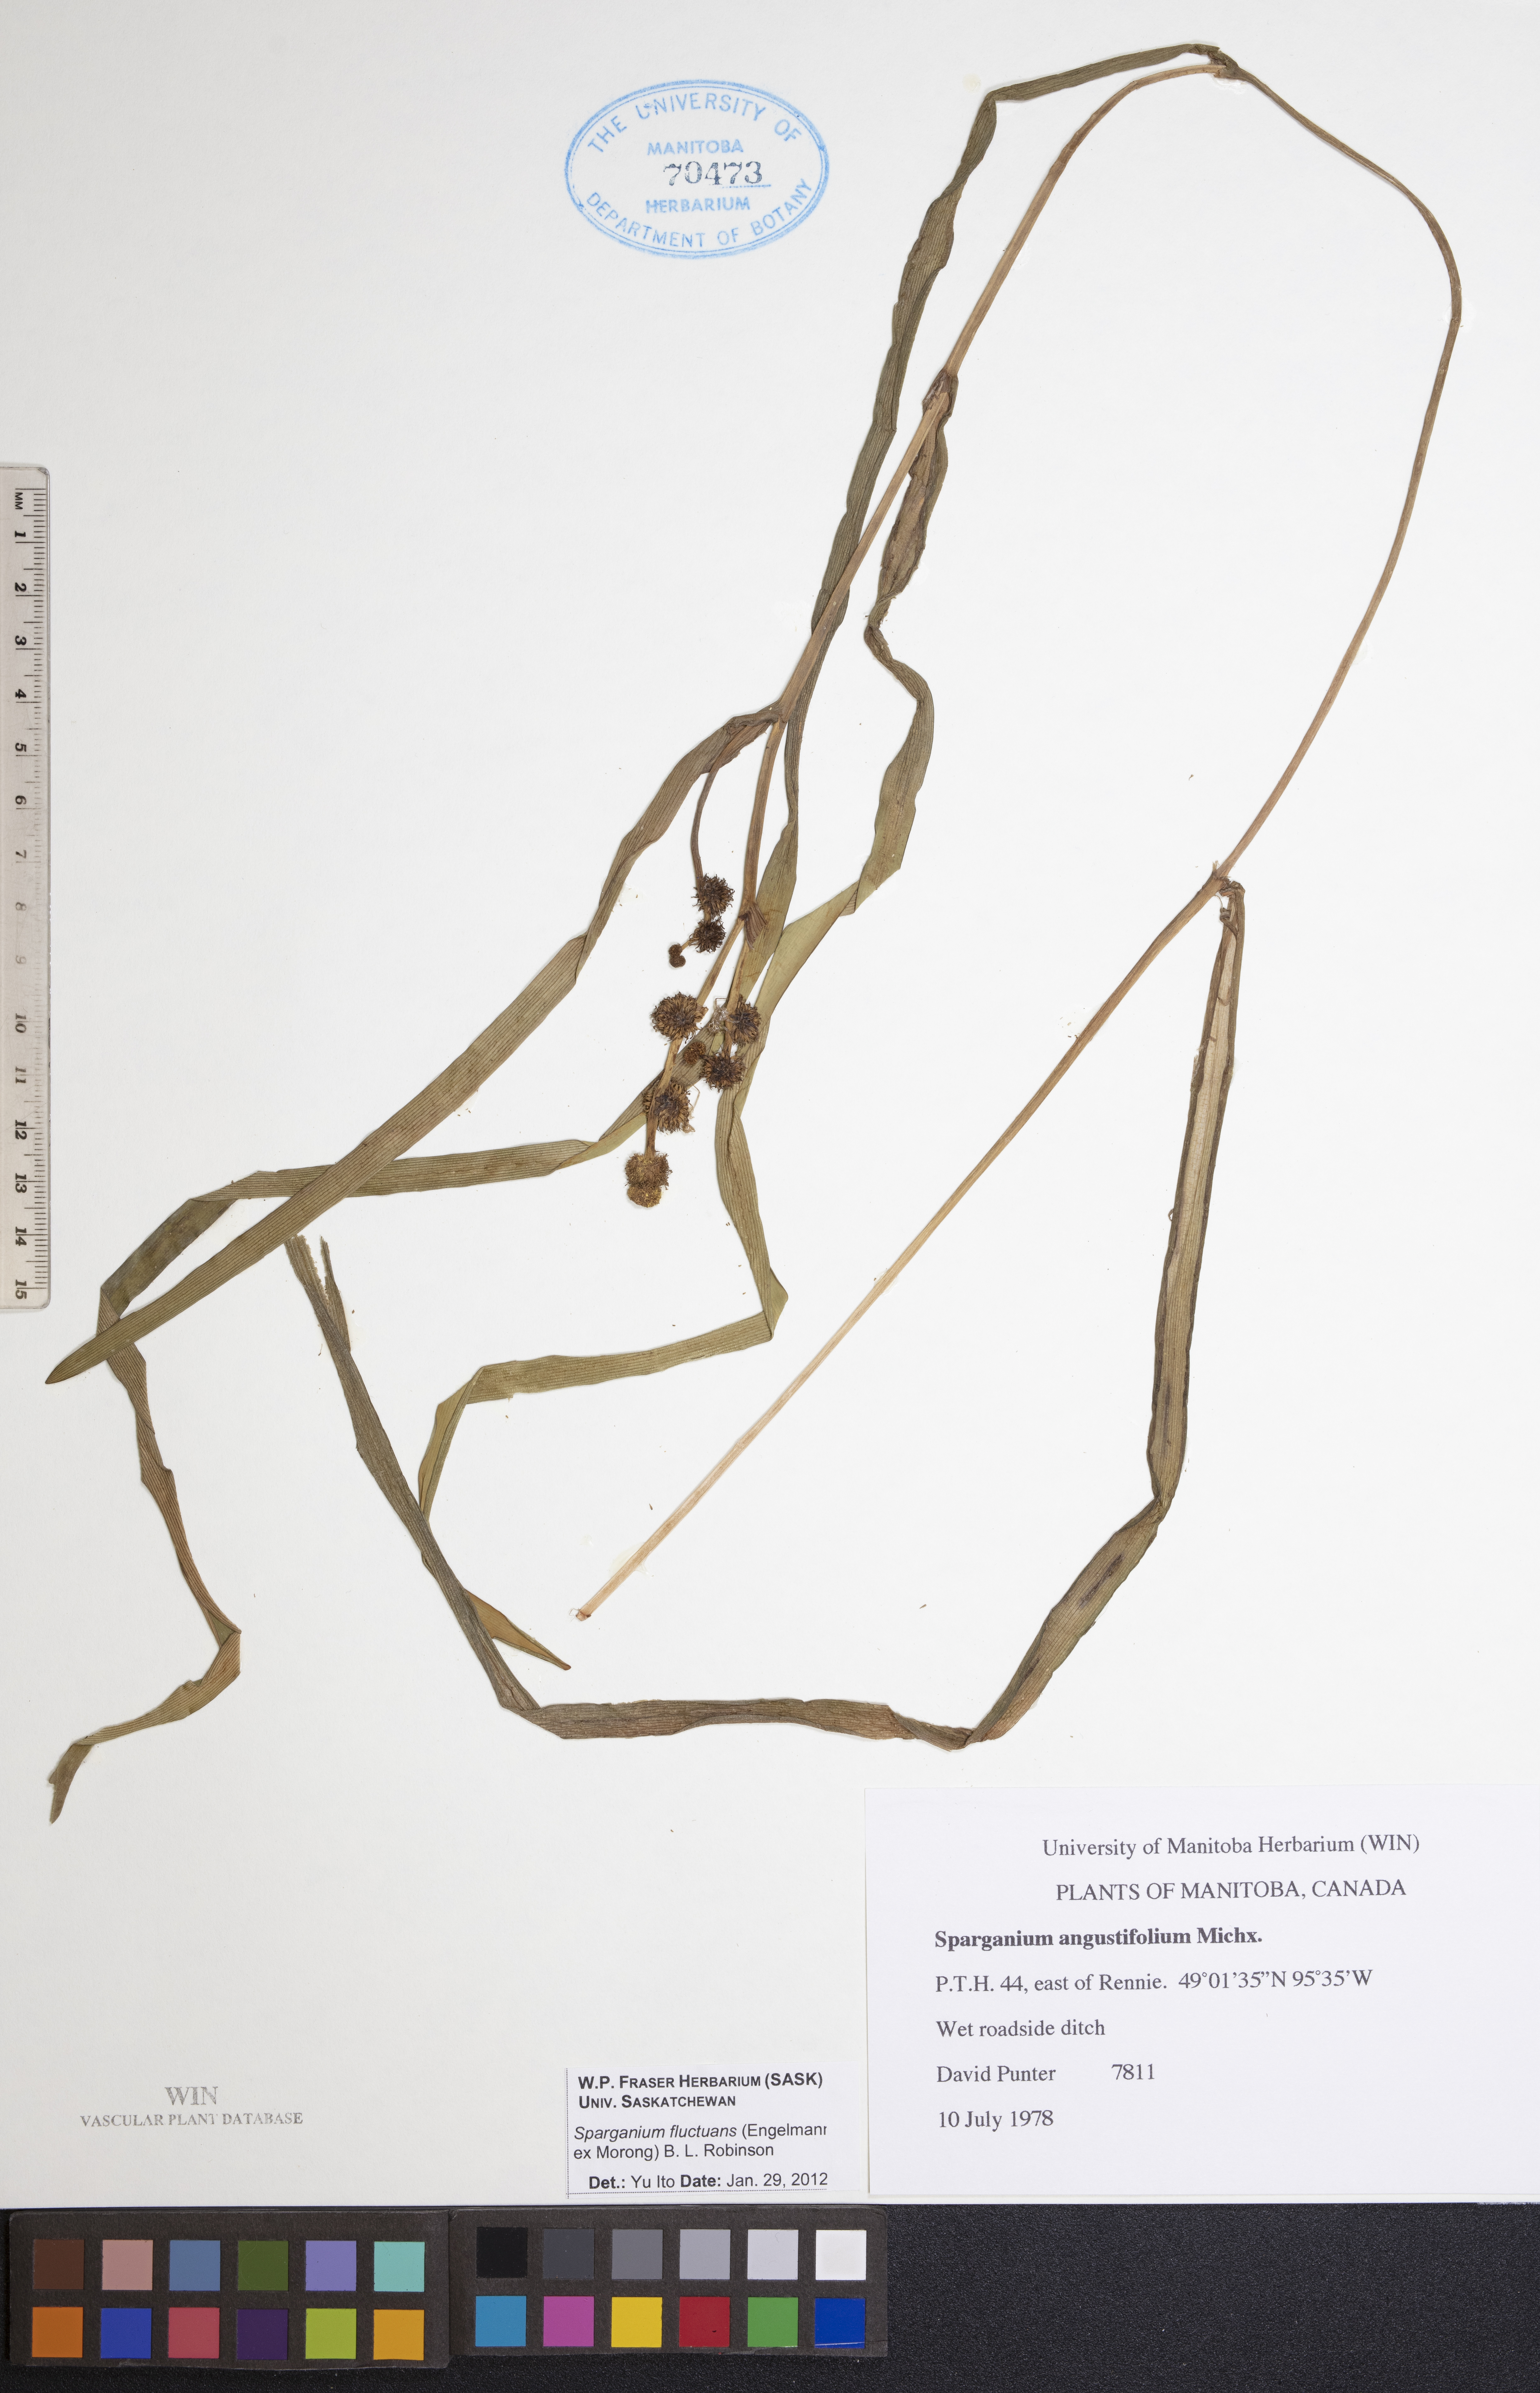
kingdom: Plantae
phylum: Tracheophyta
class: Liliopsida
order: Poales
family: Typhaceae
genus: Sparganium
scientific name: Sparganium fluctuans
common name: Floating burreed
